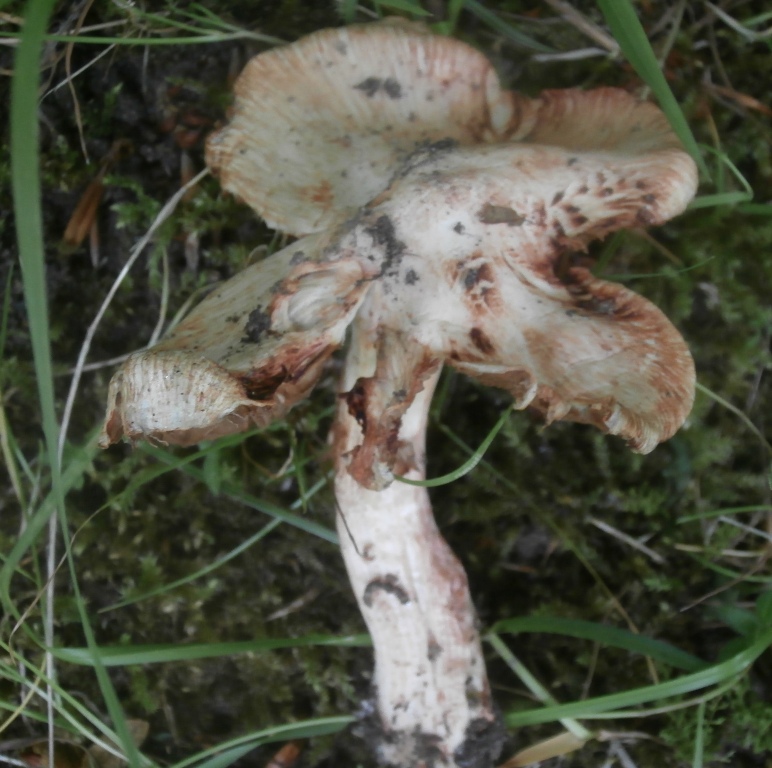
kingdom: Fungi
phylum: Basidiomycota
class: Agaricomycetes
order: Agaricales
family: Inocybaceae
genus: Inosperma
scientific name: Inosperma erubescens
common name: giftig trævlhat
